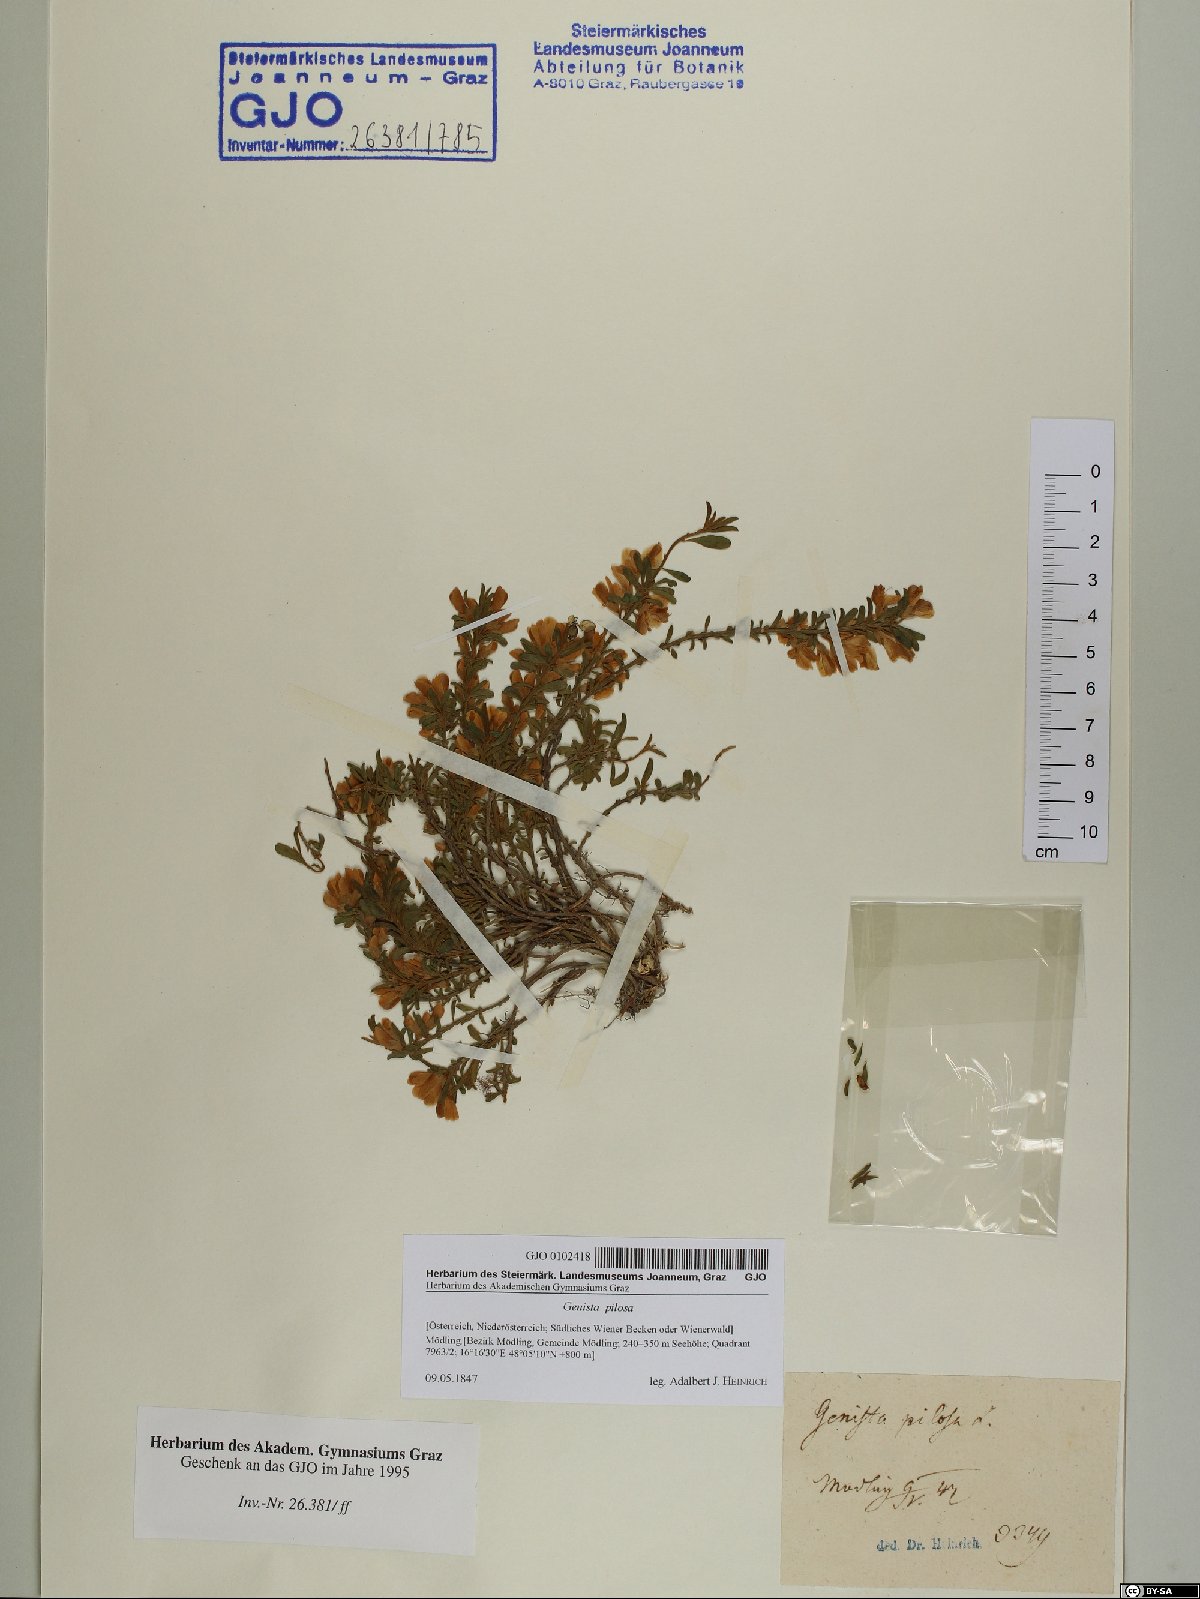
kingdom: Plantae
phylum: Tracheophyta
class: Magnoliopsida
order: Fabales
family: Fabaceae
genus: Genista
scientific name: Genista pilosa
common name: Hairy greenweed
